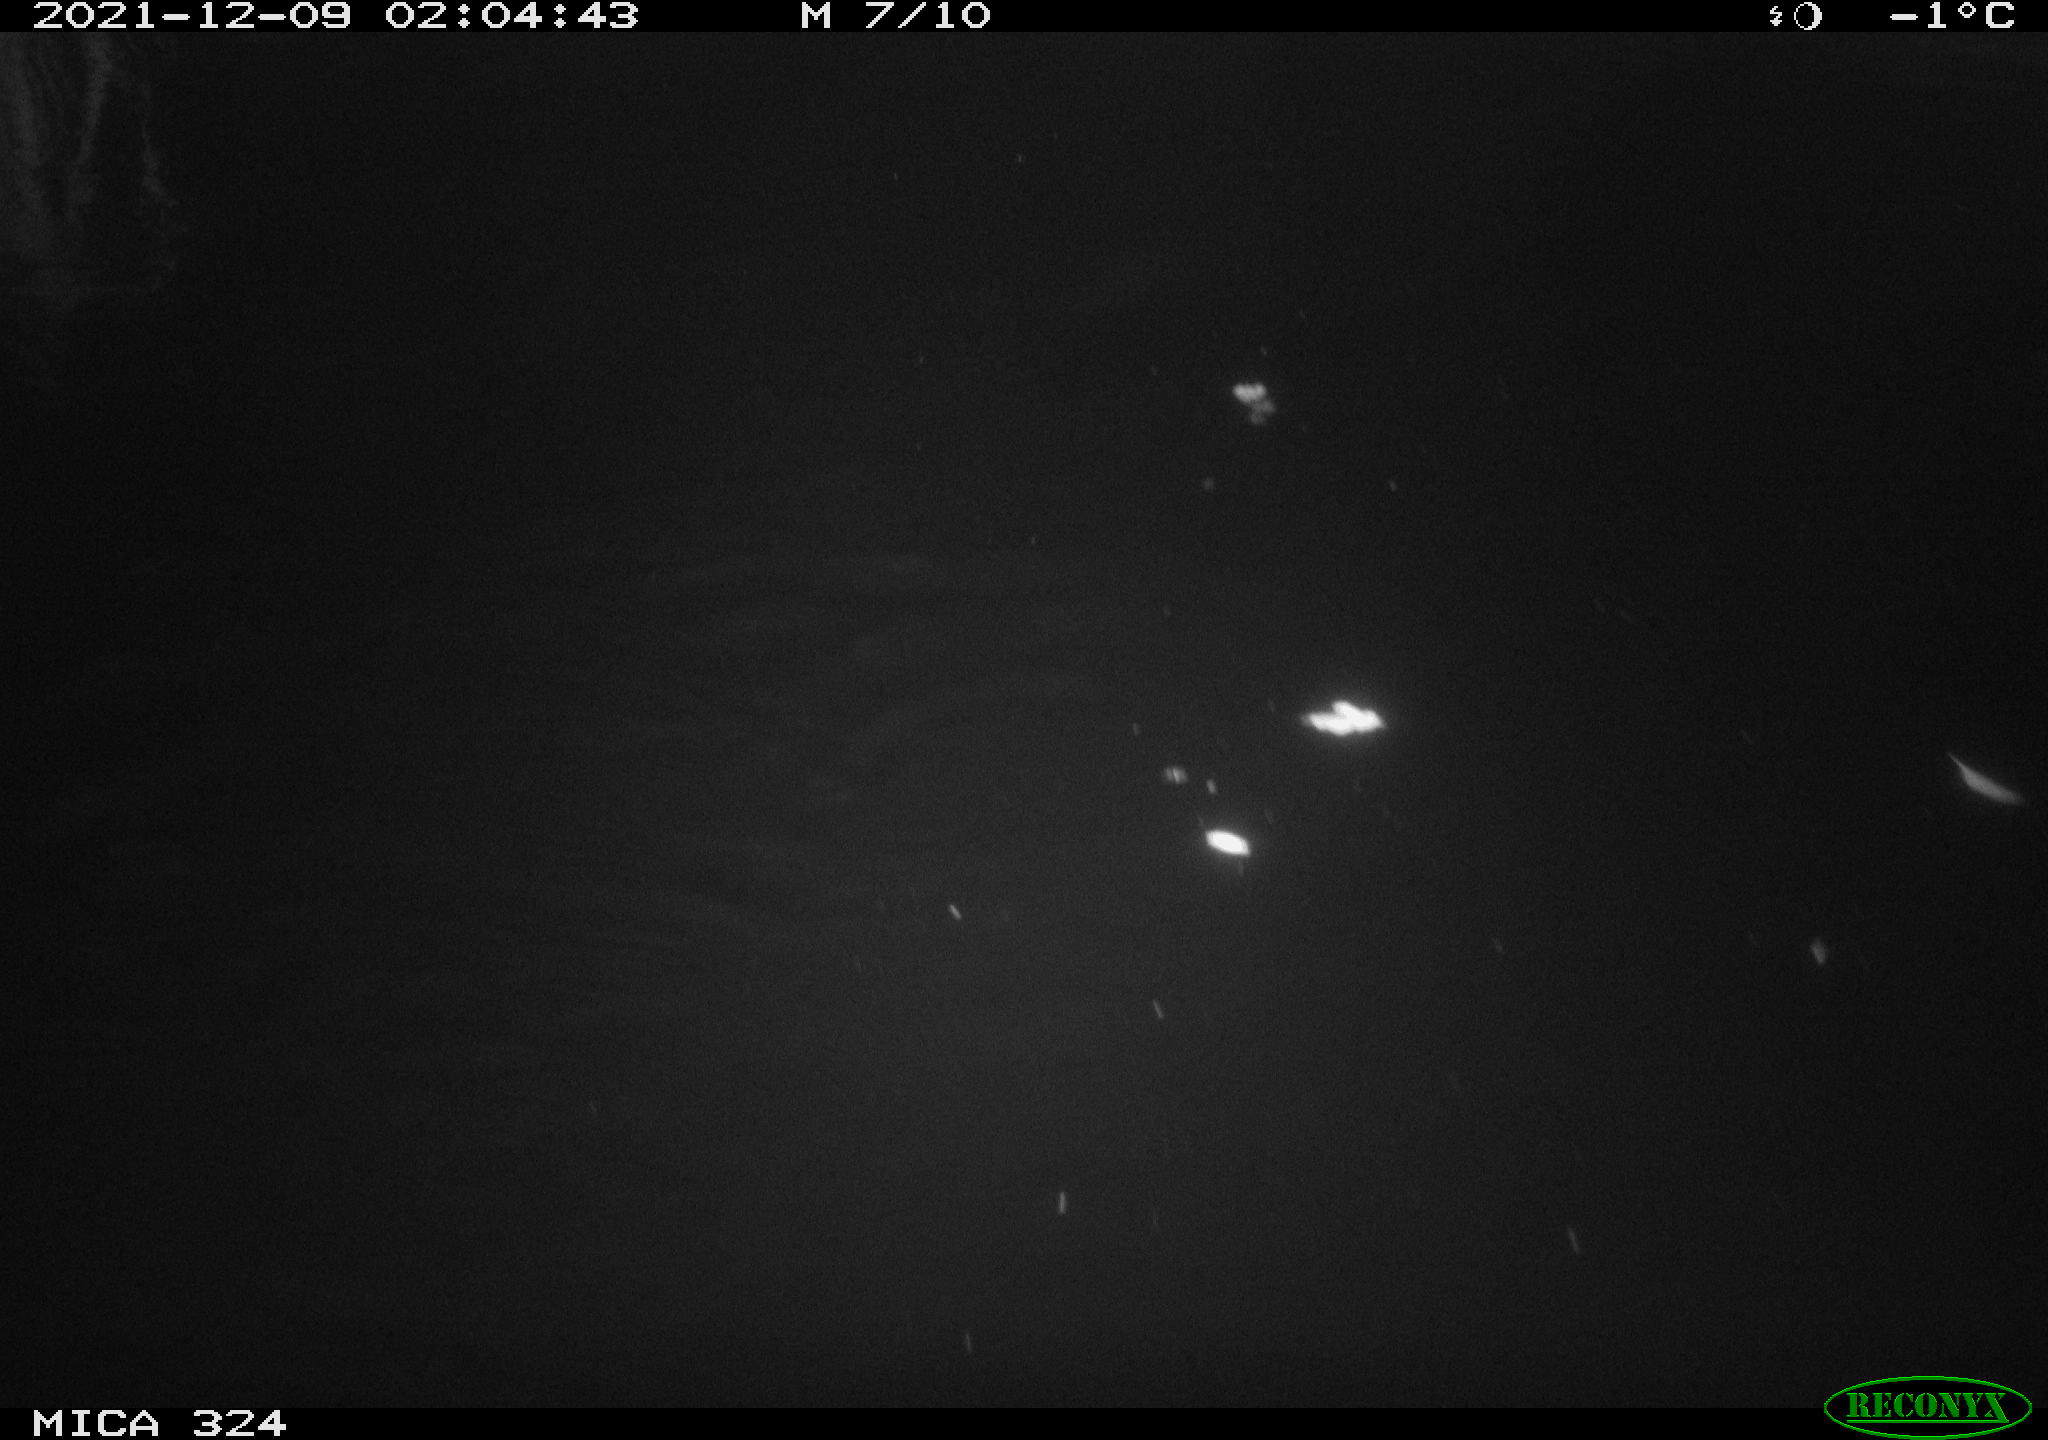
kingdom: Animalia
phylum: Chordata
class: Mammalia
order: Rodentia
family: Cricetidae
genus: Ondatra
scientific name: Ondatra zibethicus
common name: Muskrat
